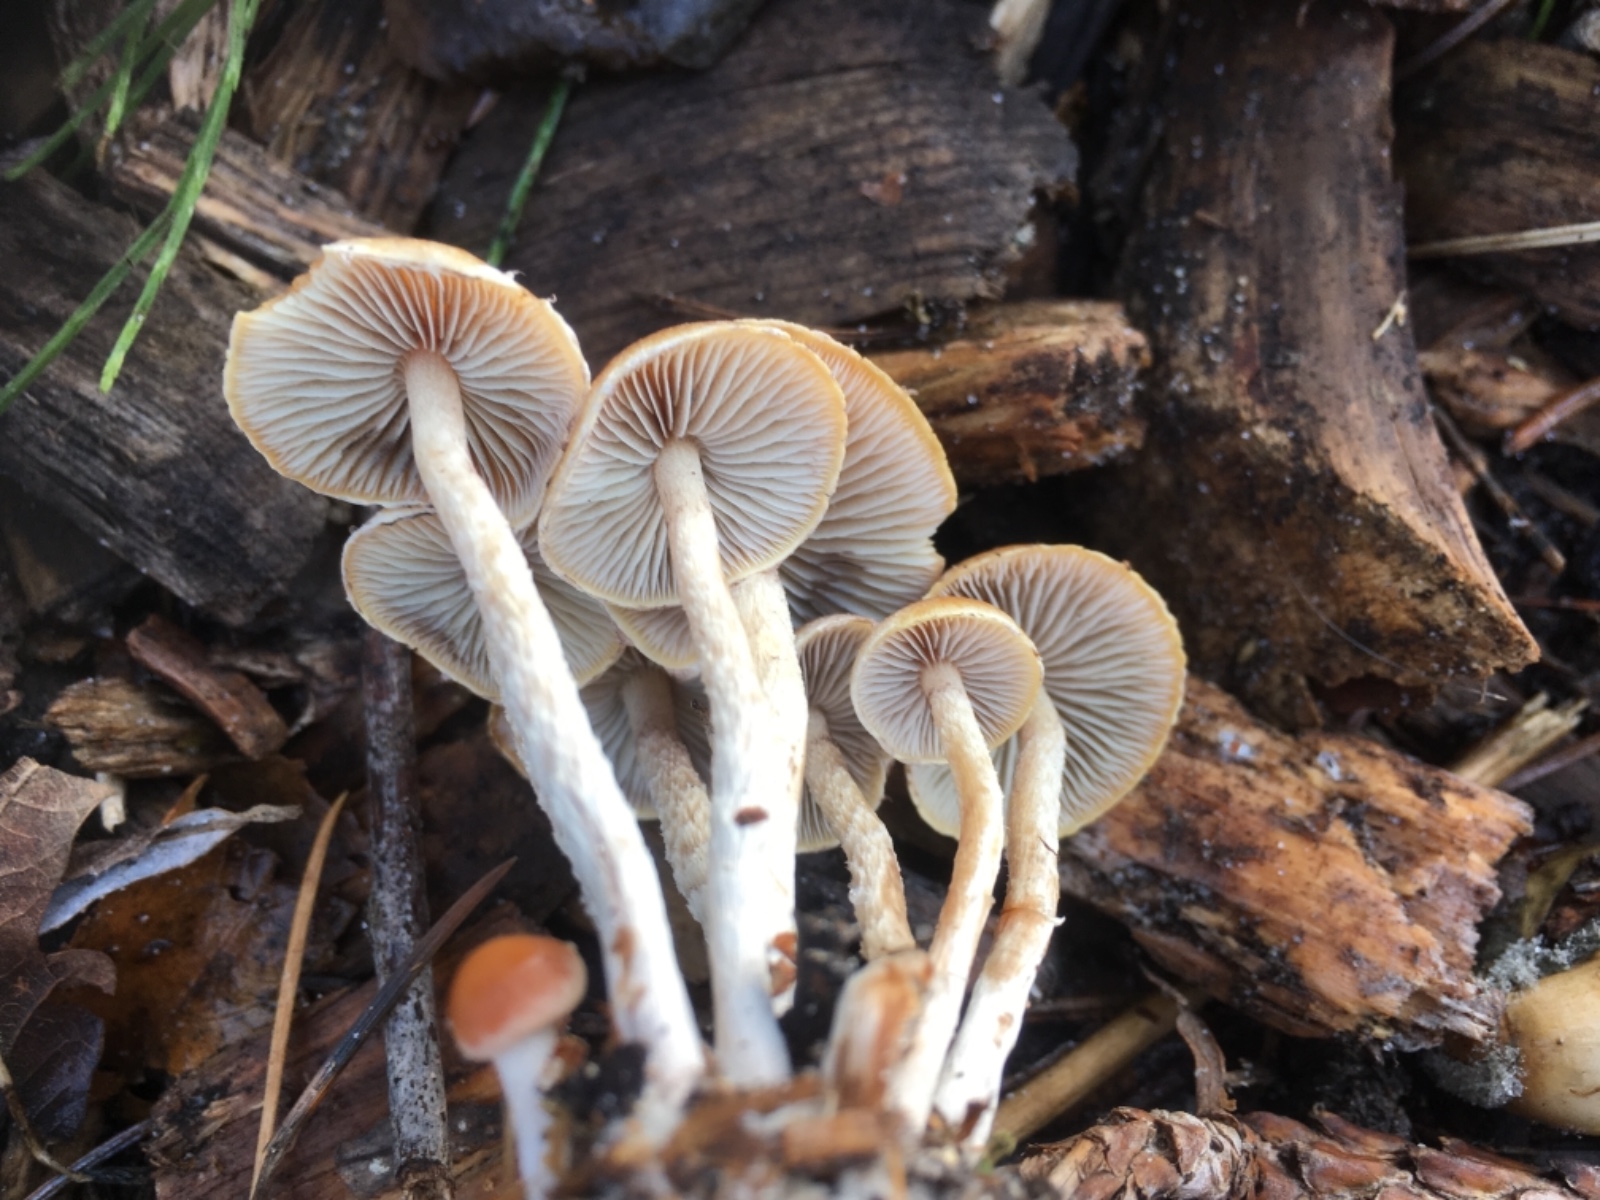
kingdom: Fungi
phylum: Basidiomycota
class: Agaricomycetes
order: Agaricales
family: Strophariaceae
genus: Hypholoma
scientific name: Hypholoma marginatum
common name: enlig svovlhat
